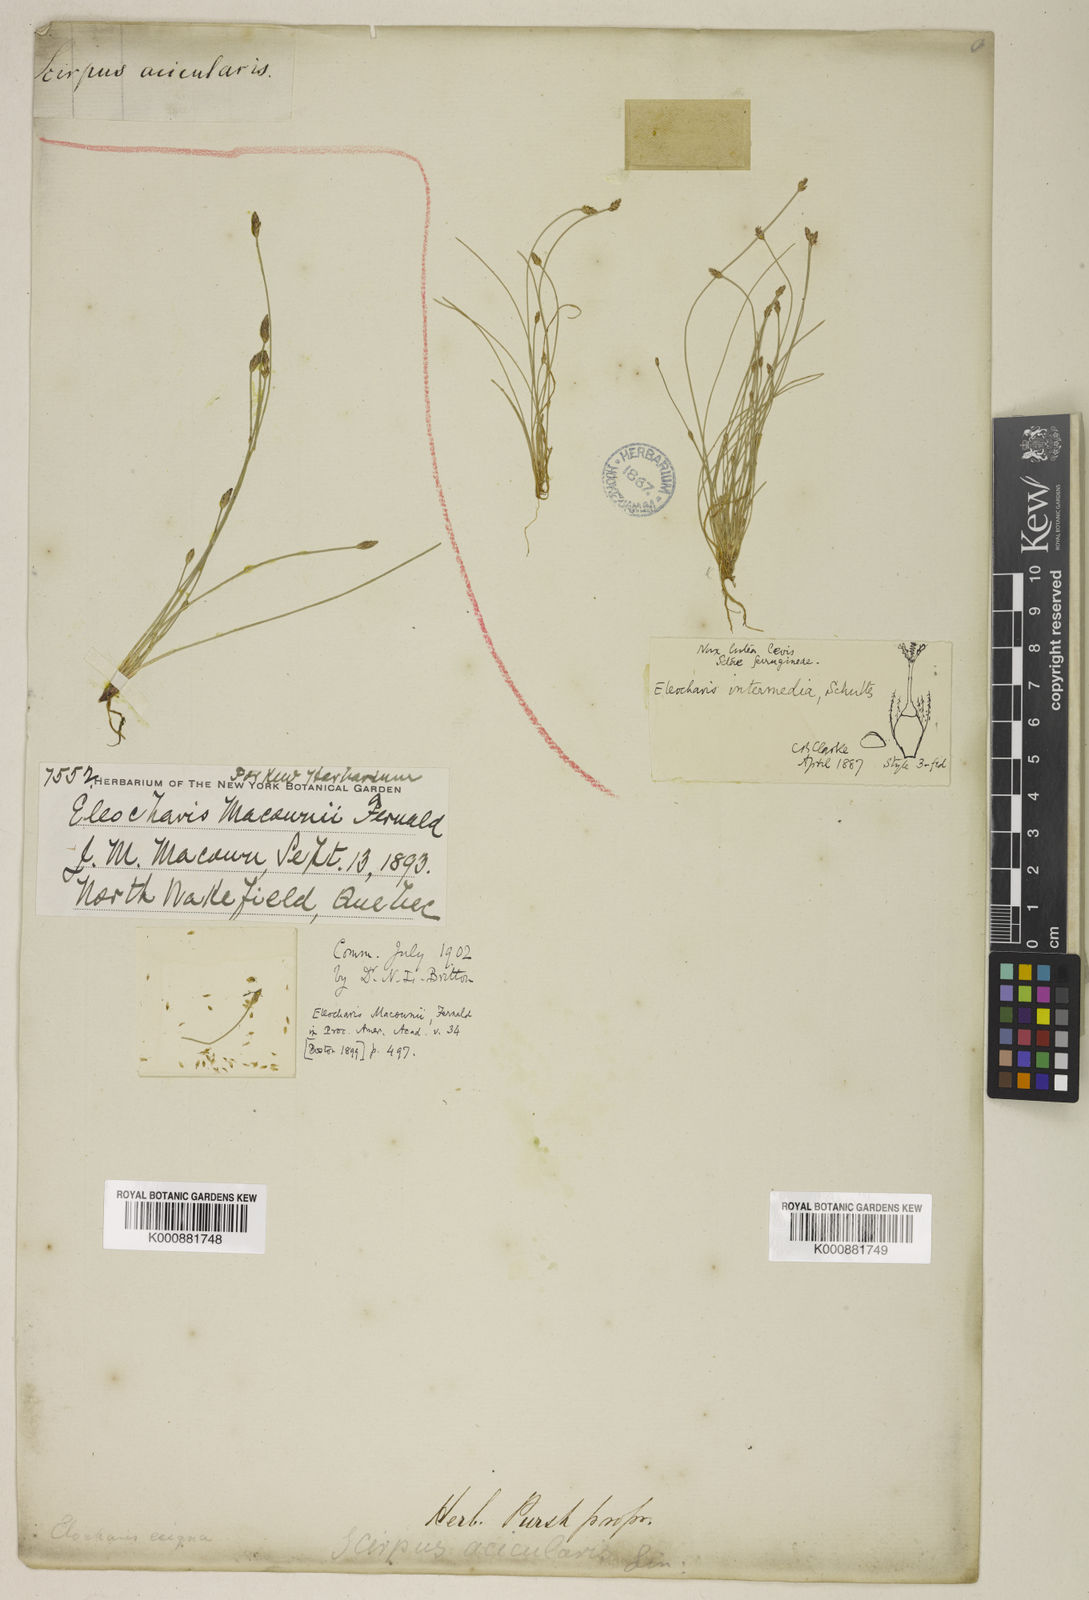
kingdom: Plantae
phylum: Tracheophyta
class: Liliopsida
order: Poales
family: Cyperaceae
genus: Eleocharis
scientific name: Eleocharis macounii
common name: Macoun's spikerush
